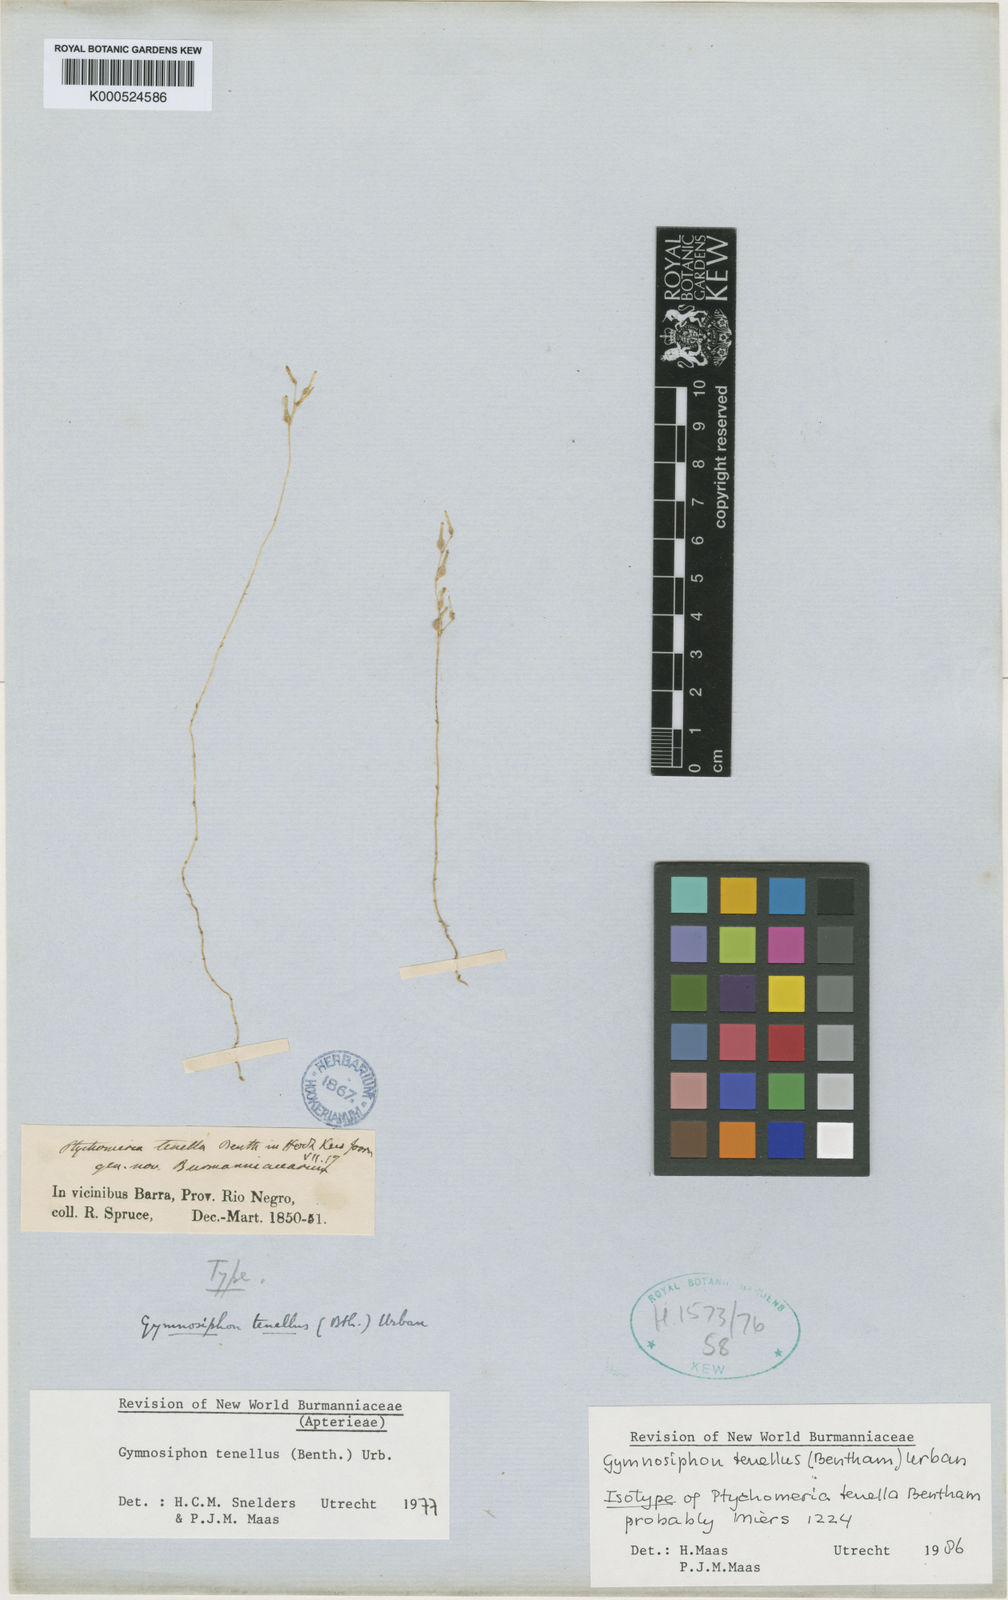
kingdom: Plantae
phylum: Tracheophyta
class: Liliopsida
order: Dioscoreales
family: Burmanniaceae
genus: Gymnosiphon
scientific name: Gymnosiphon tenellus
